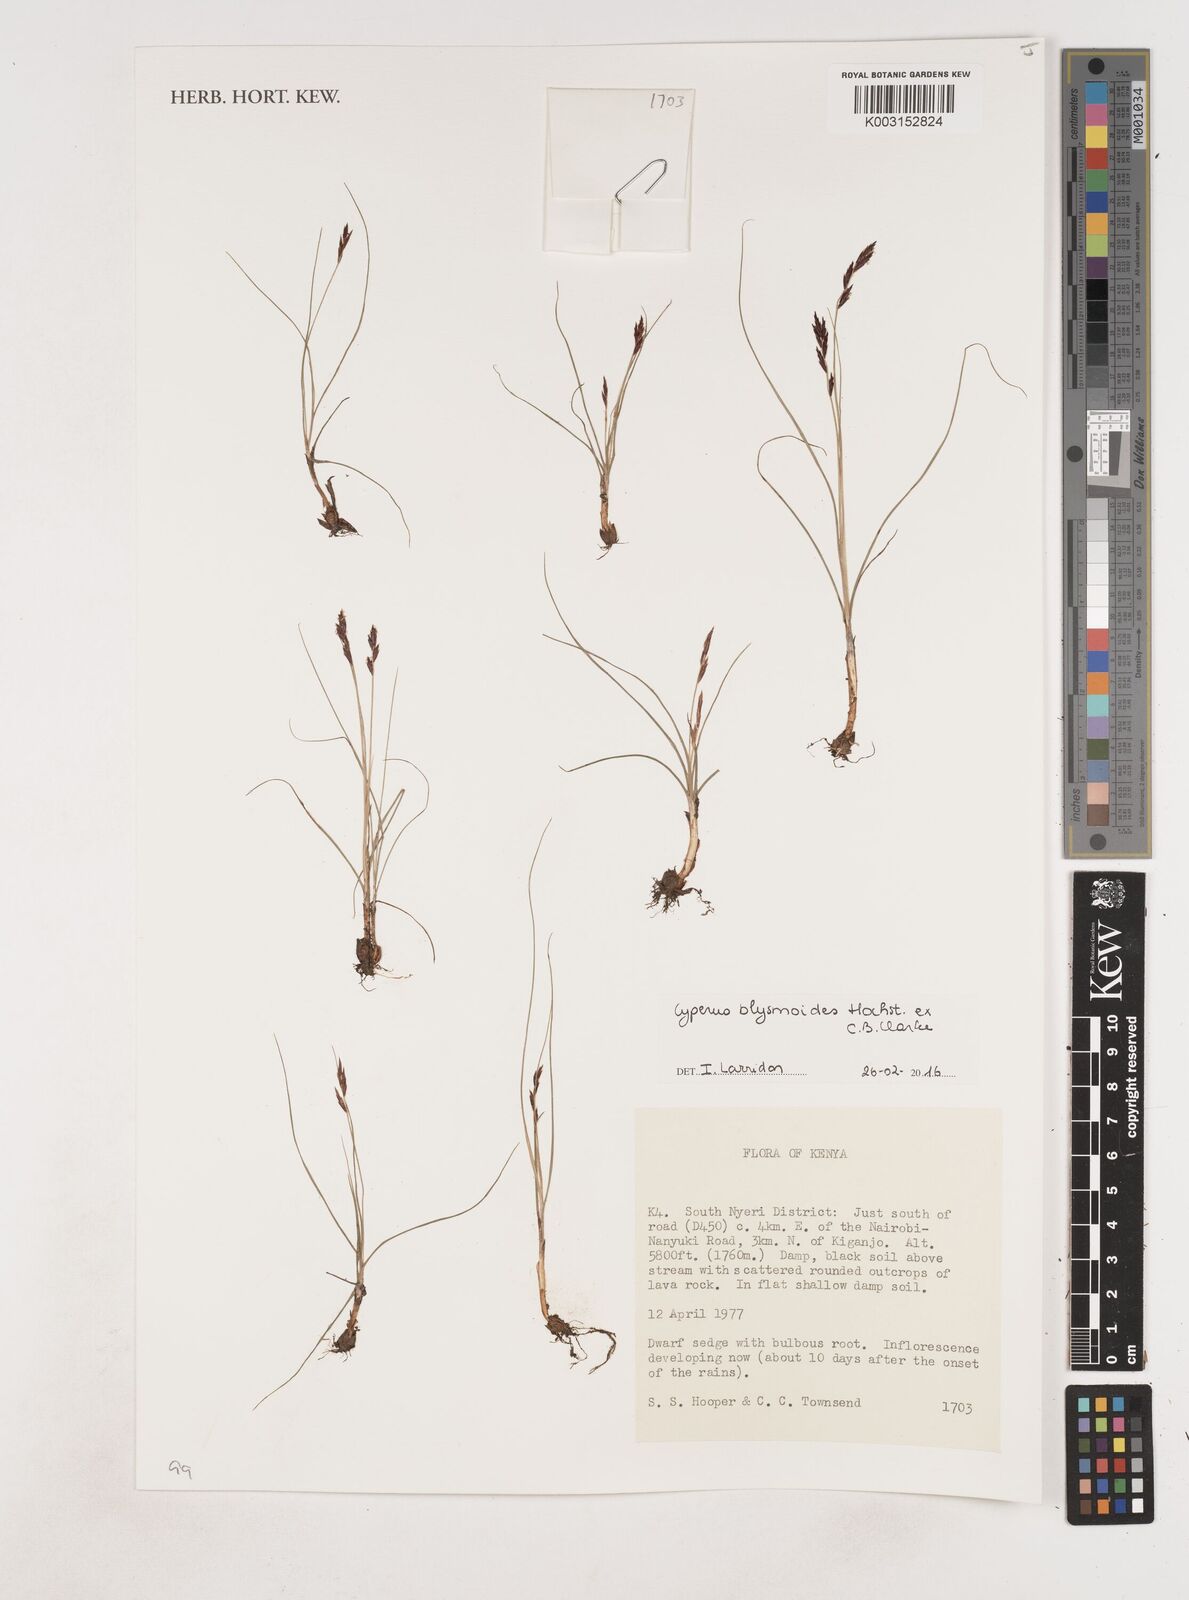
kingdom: Plantae
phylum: Tracheophyta
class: Liliopsida
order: Poales
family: Cyperaceae
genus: Cyperus
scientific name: Cyperus blysmoides
